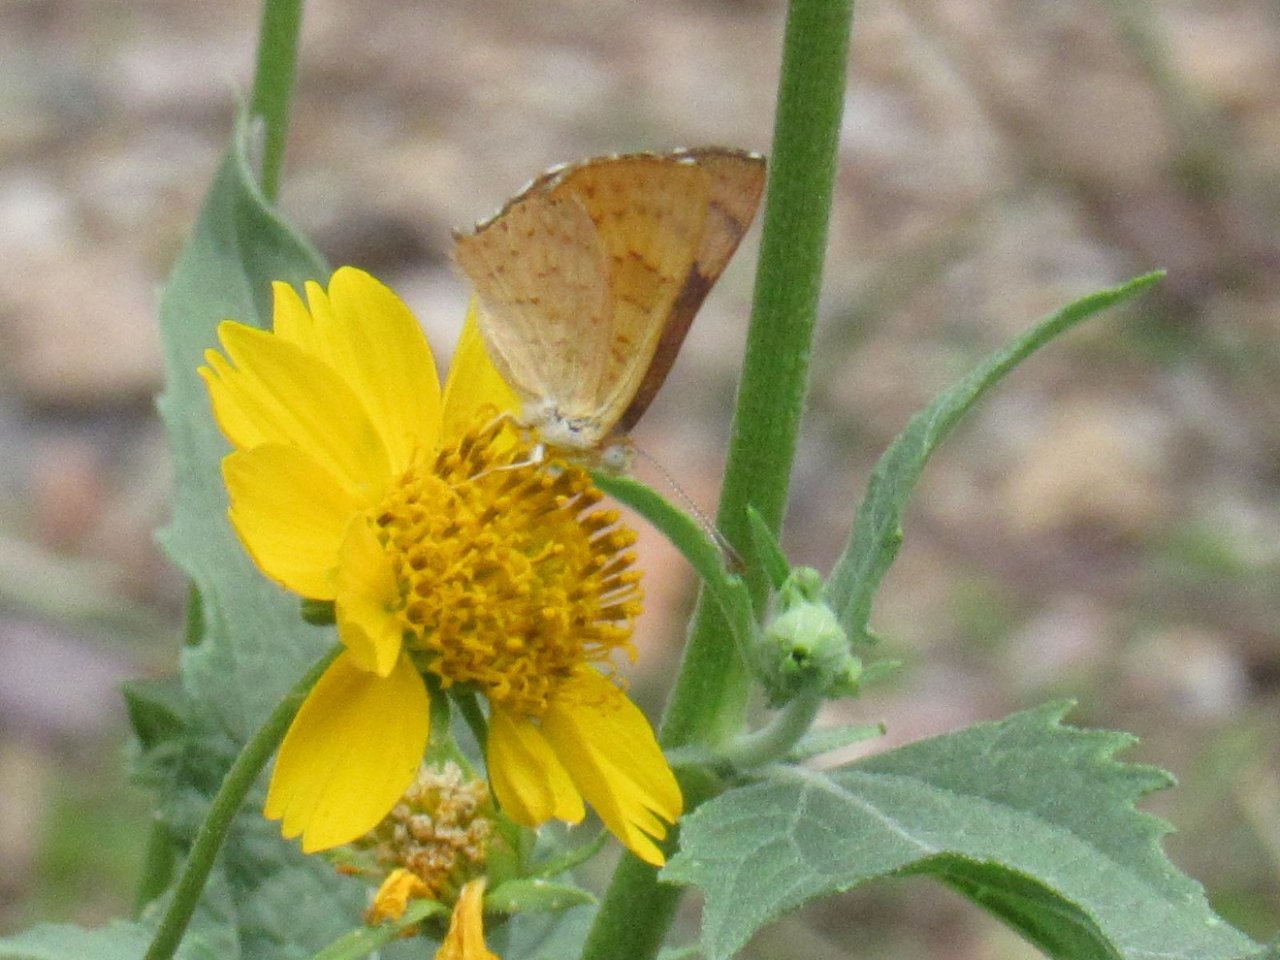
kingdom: Animalia
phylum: Arthropoda
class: Insecta
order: Lepidoptera
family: Lycaenidae
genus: Emesis
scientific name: Emesis zela
